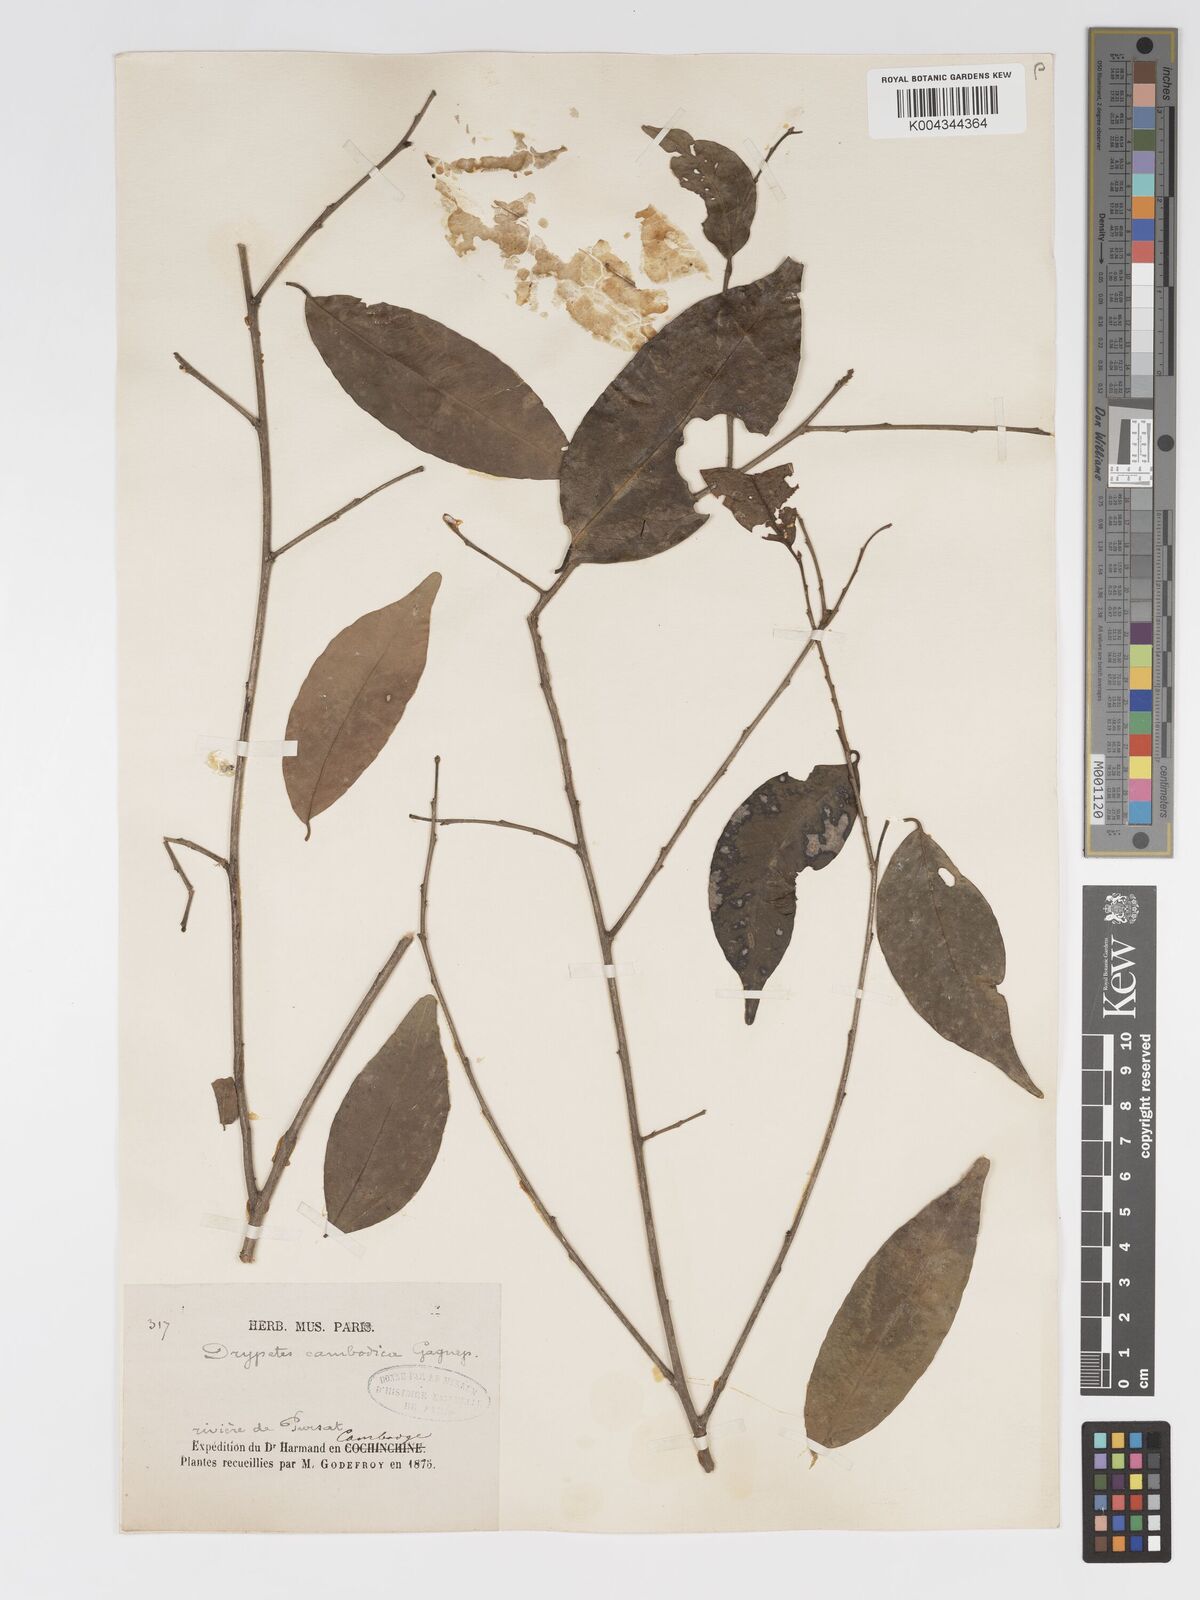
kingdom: Plantae
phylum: Tracheophyta
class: Magnoliopsida
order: Malpighiales
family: Putranjivaceae
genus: Drypetes
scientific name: Drypetes cambodica
